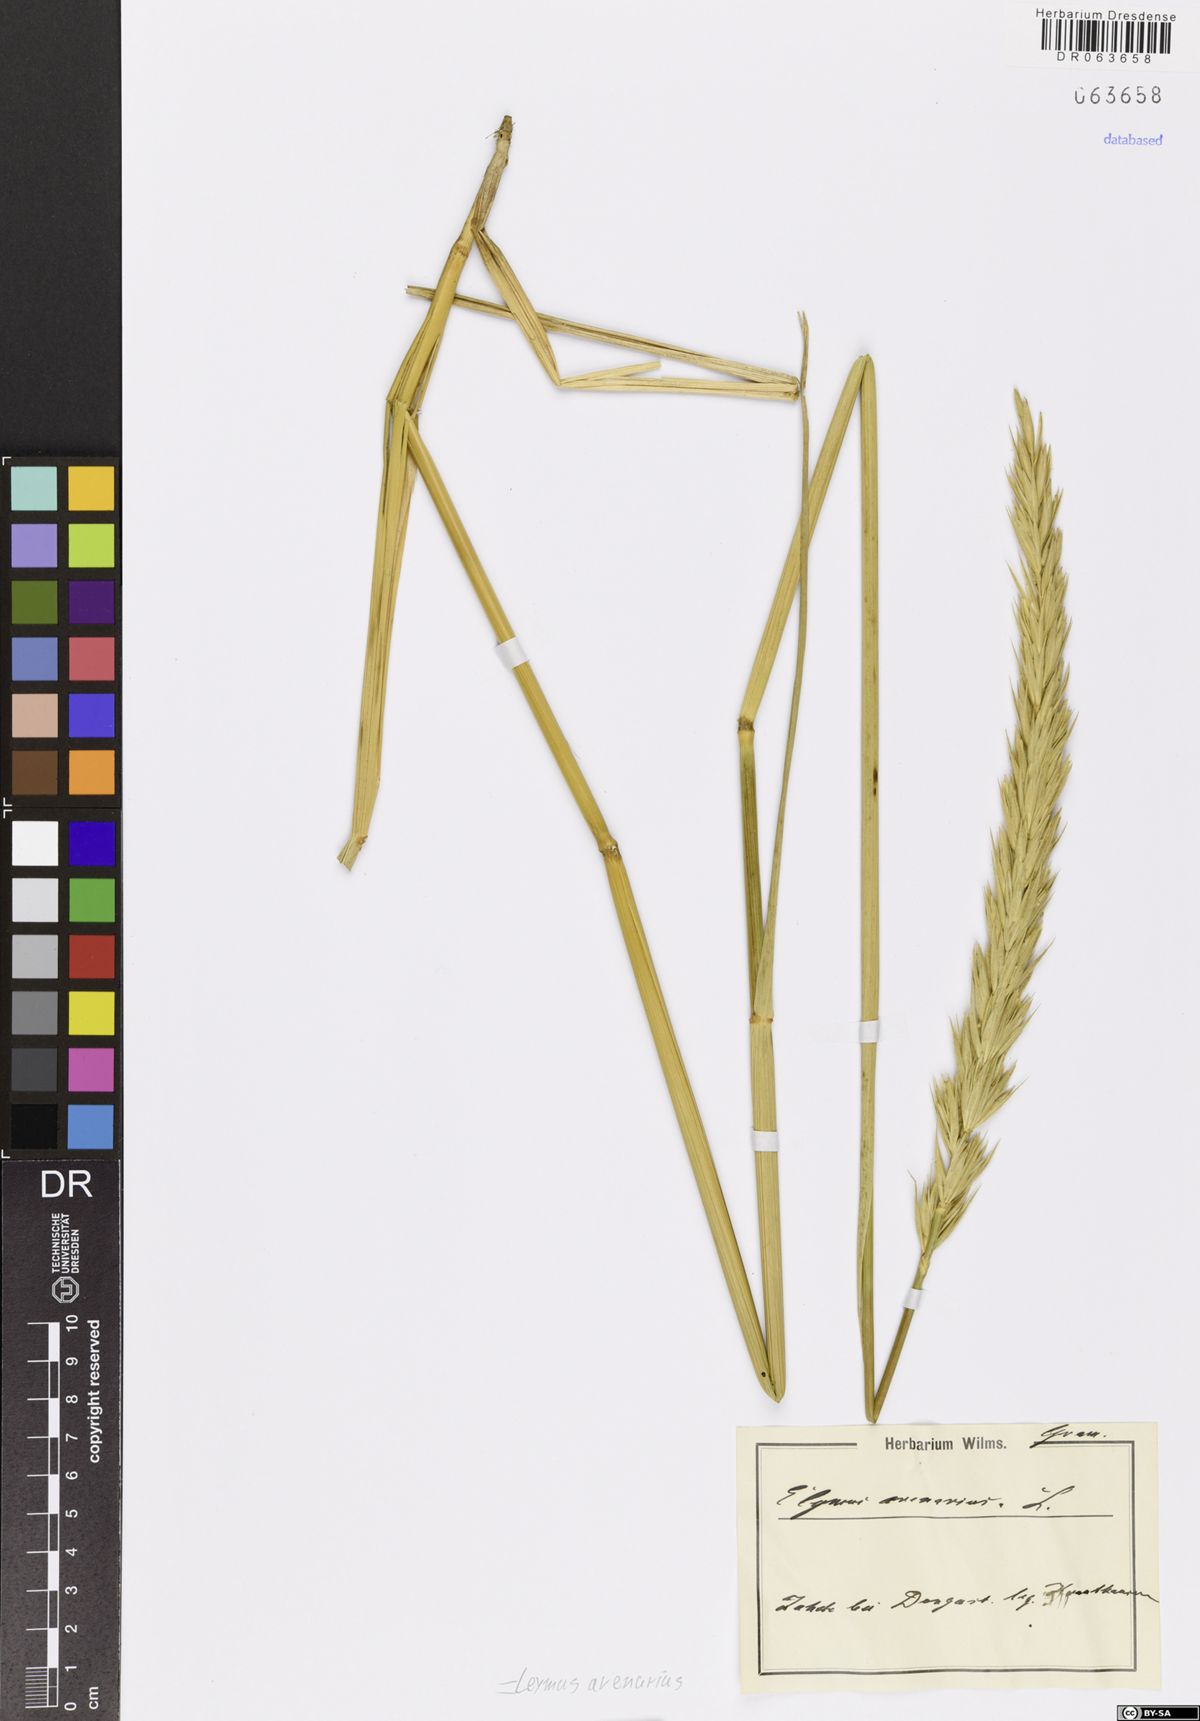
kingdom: Plantae
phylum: Tracheophyta
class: Liliopsida
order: Poales
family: Poaceae
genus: Leymus
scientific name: Leymus arenarius
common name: Lyme-grass
